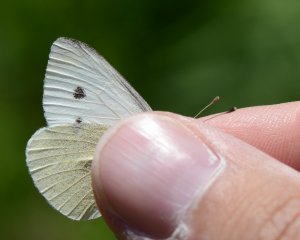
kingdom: Animalia
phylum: Arthropoda
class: Insecta
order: Lepidoptera
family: Pieridae
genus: Pieris
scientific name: Pieris rapae
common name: Cabbage White
